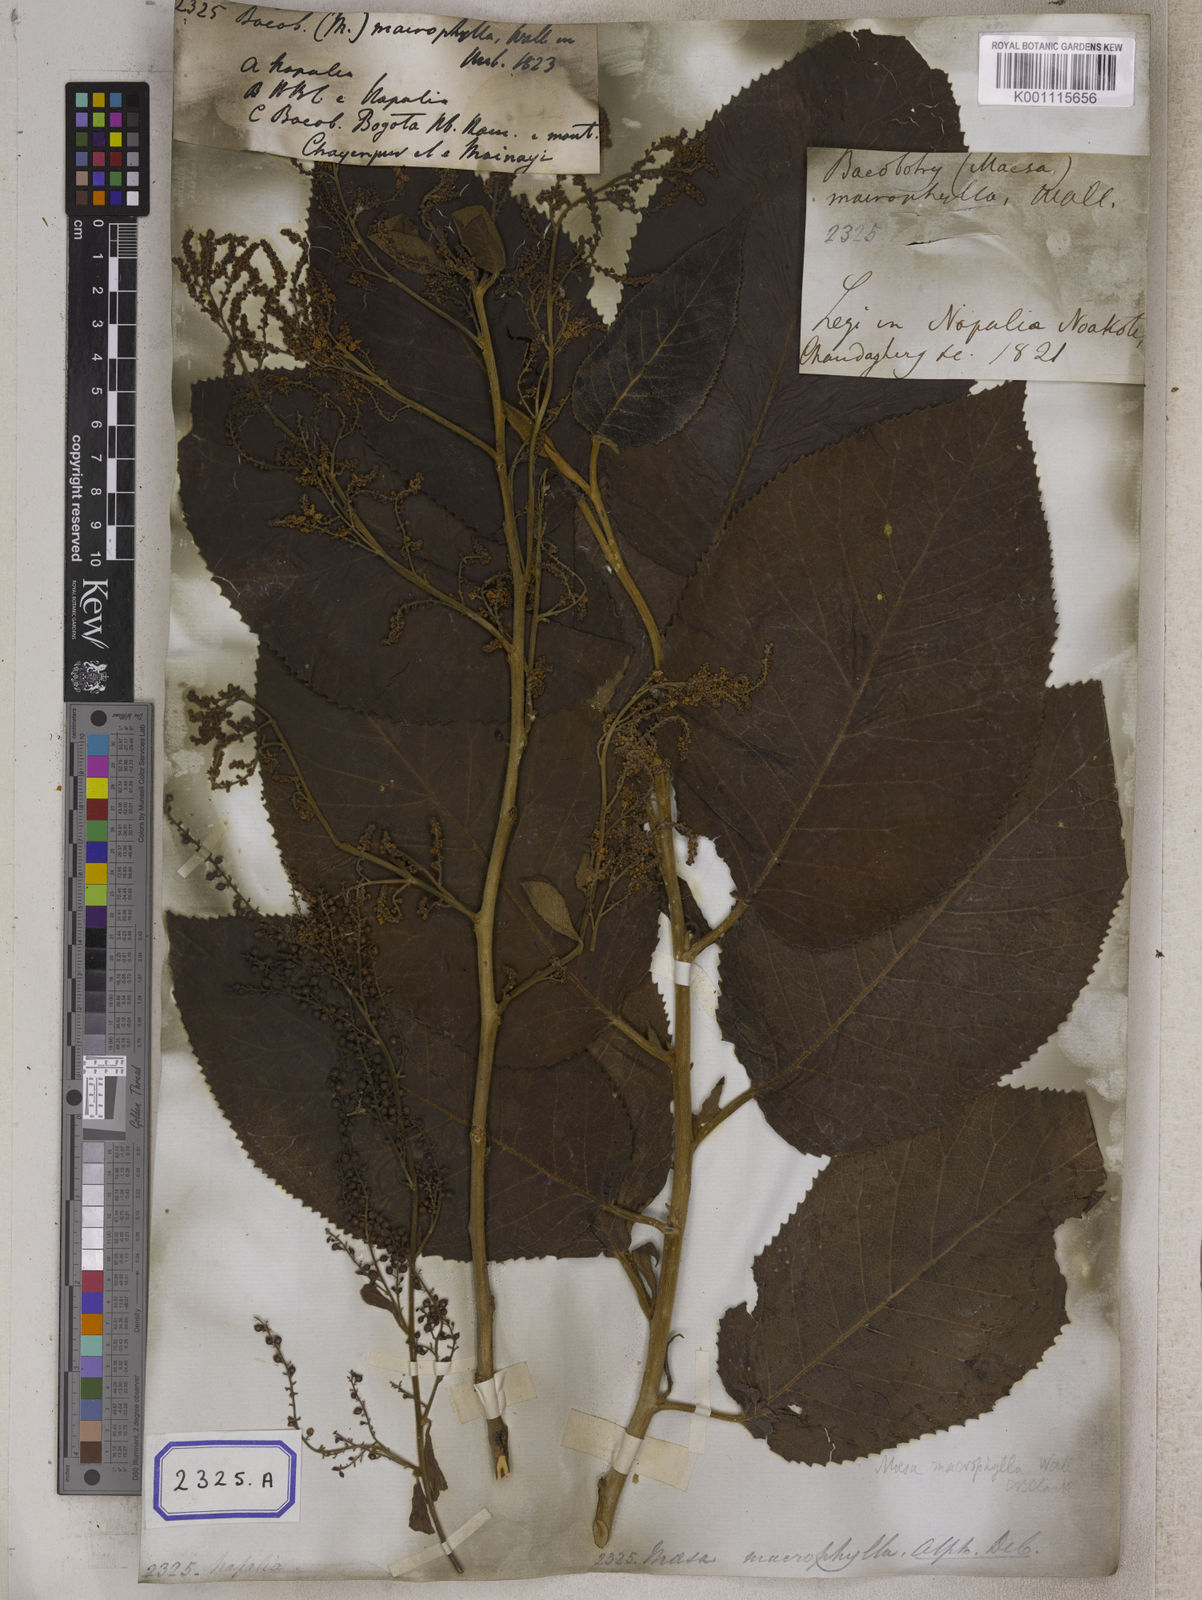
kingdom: Plantae
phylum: Tracheophyta
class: Magnoliopsida
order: Ericales
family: Primulaceae
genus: Maesa
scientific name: Maesa macrophylla
